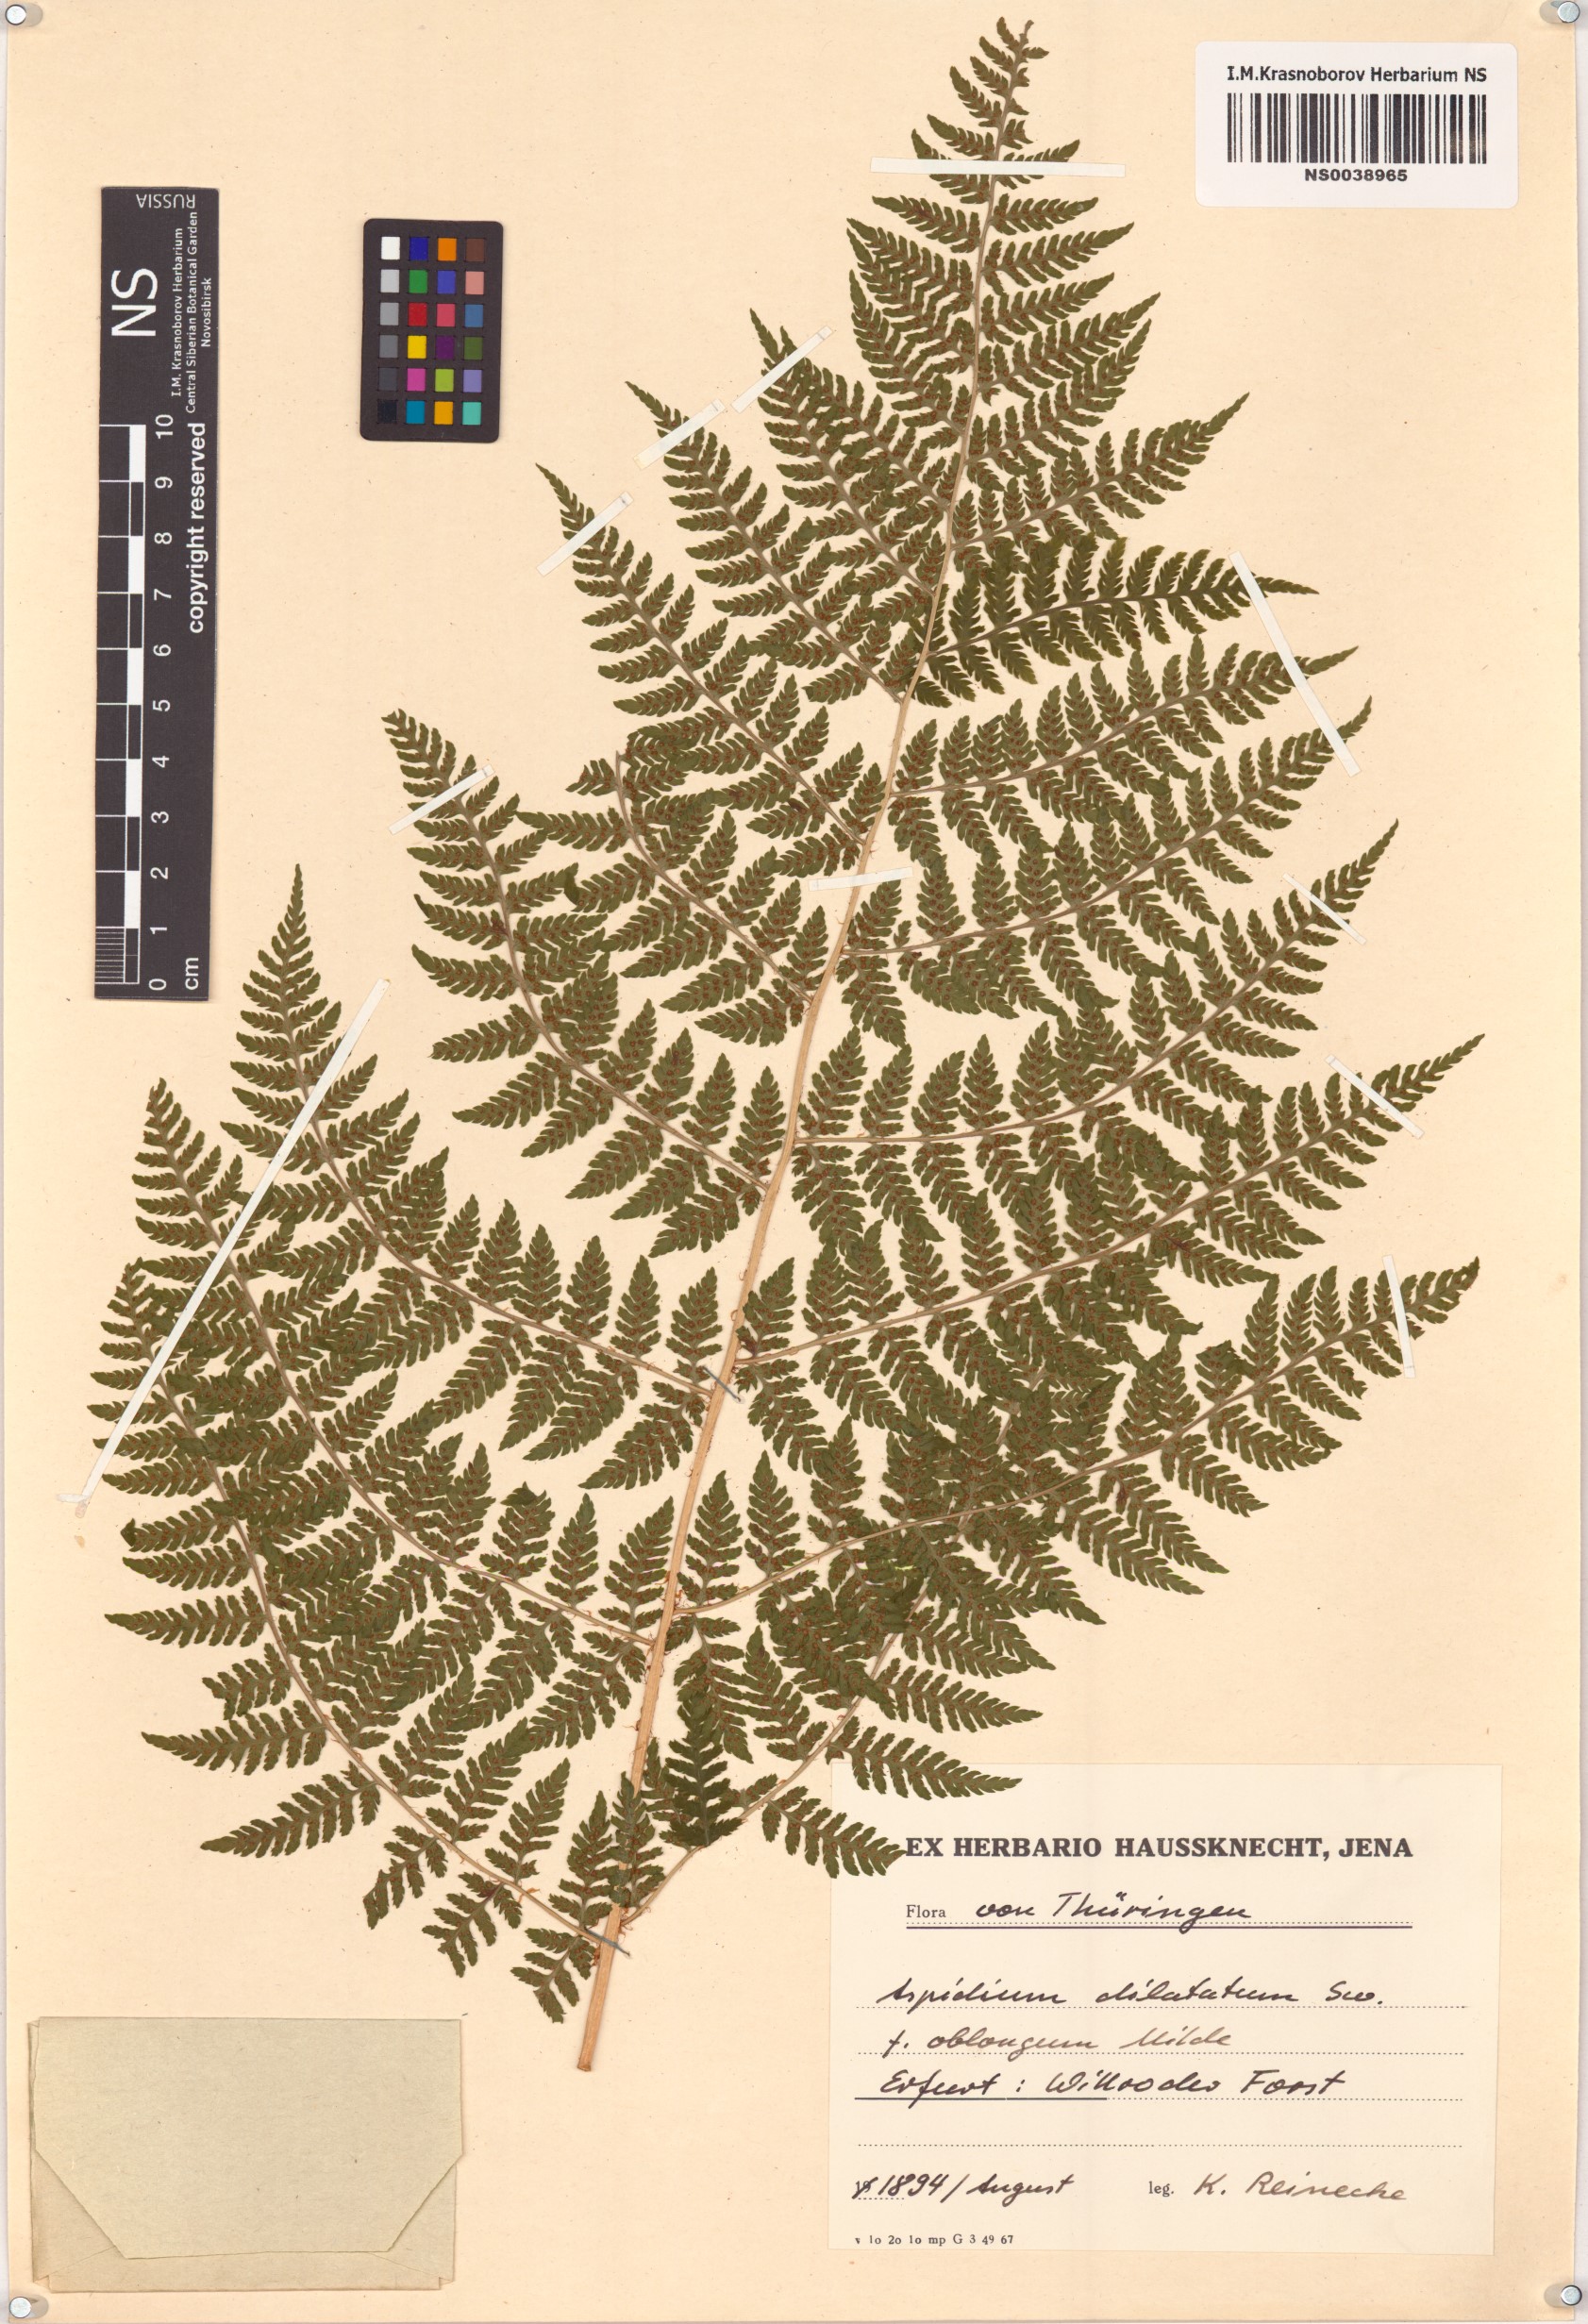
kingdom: Plantae
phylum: Tracheophyta
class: Polypodiopsida
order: Polypodiales
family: Dryopteridaceae
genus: Dryopteris
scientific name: Dryopteris dilatata
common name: Broad buckler-fern
